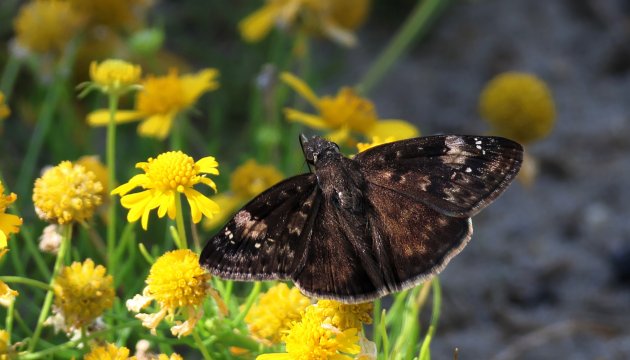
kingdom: Animalia
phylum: Arthropoda
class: Insecta
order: Lepidoptera
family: Hesperiidae
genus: Erynnis
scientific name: Erynnis zarucco
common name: Zarucco Duskywing
